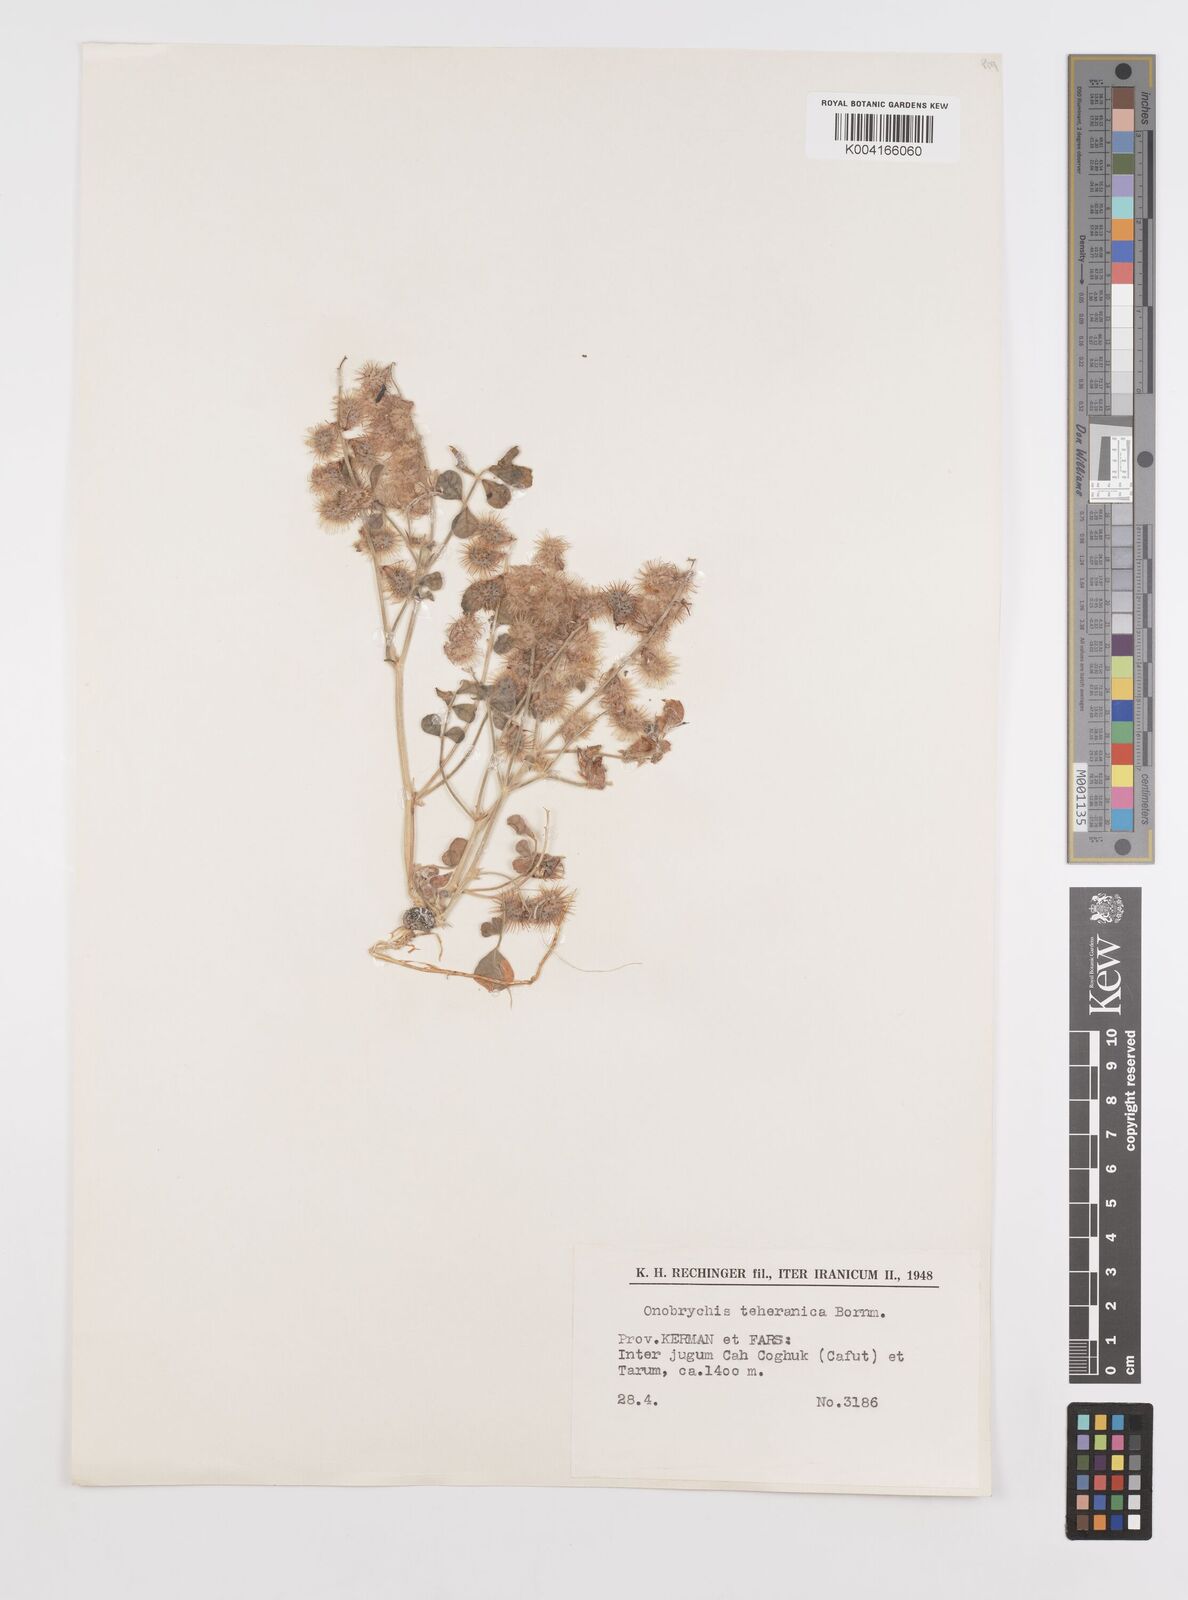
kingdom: Plantae
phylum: Tracheophyta
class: Magnoliopsida
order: Fabales
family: Fabaceae
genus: Onobrychis
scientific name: Onobrychis aucheri
